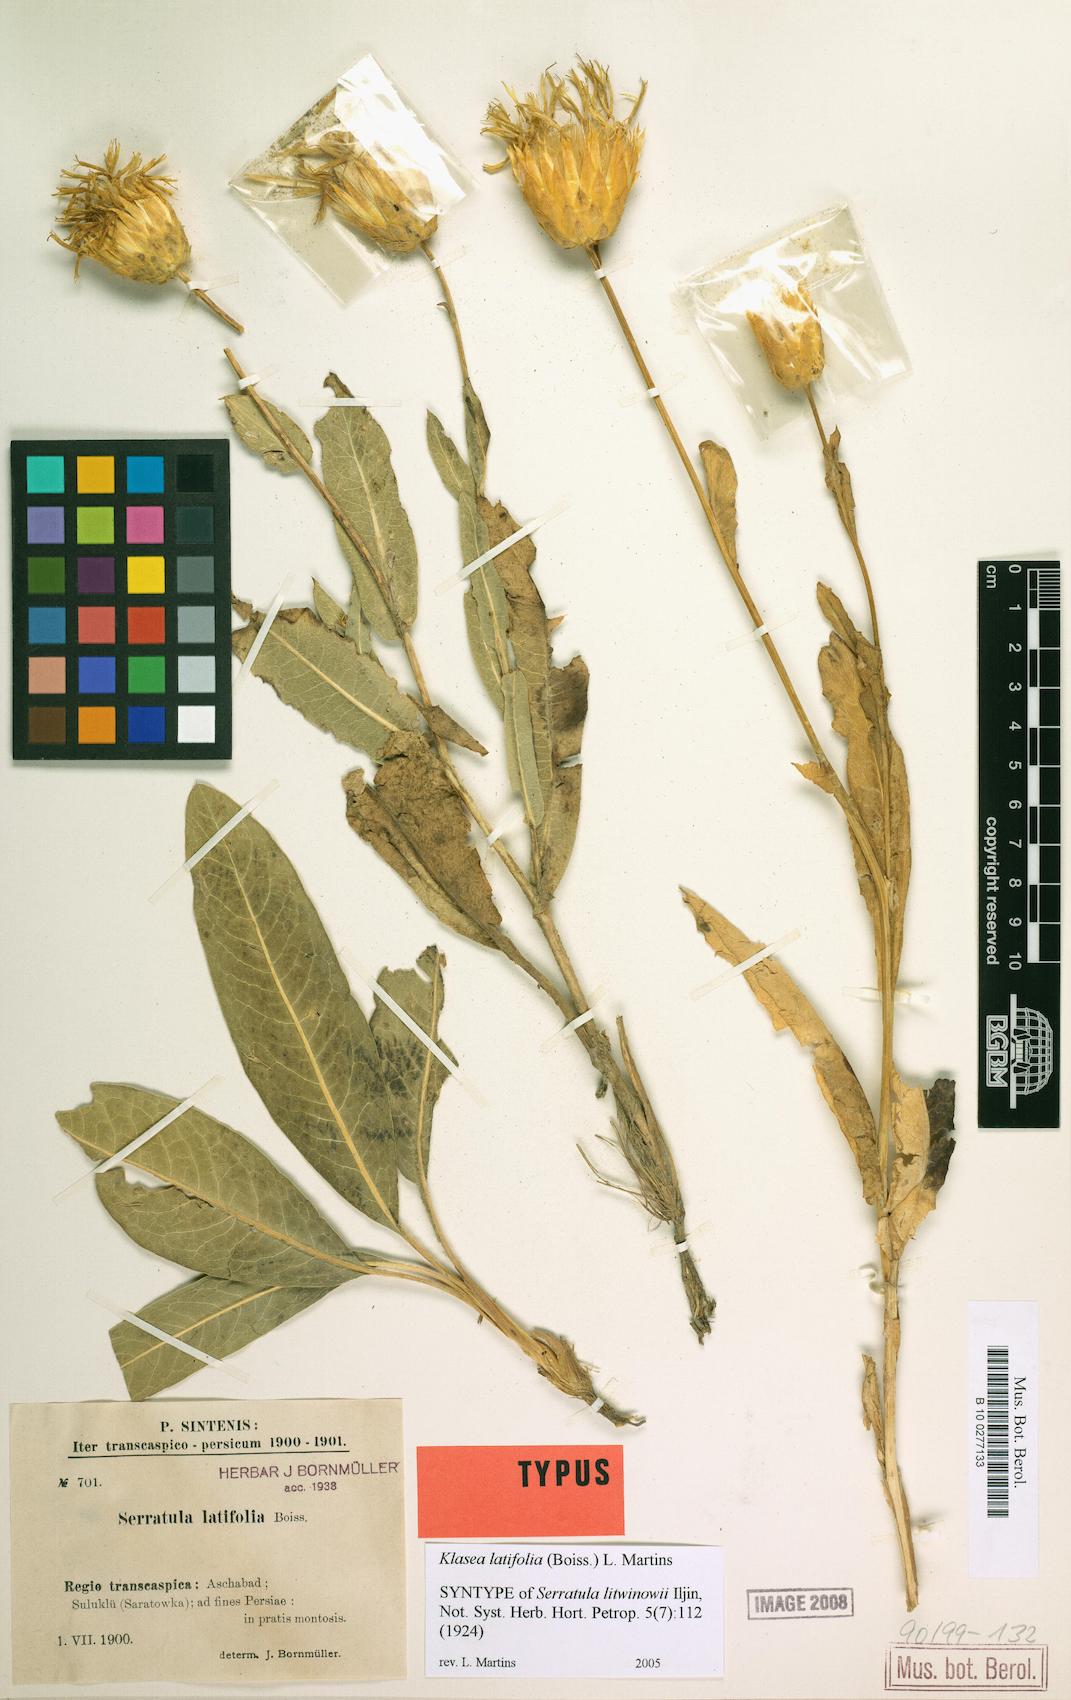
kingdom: Plantae
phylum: Tracheophyta
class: Magnoliopsida
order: Asterales
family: Asteraceae
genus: Klasea
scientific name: Klasea latifolia
